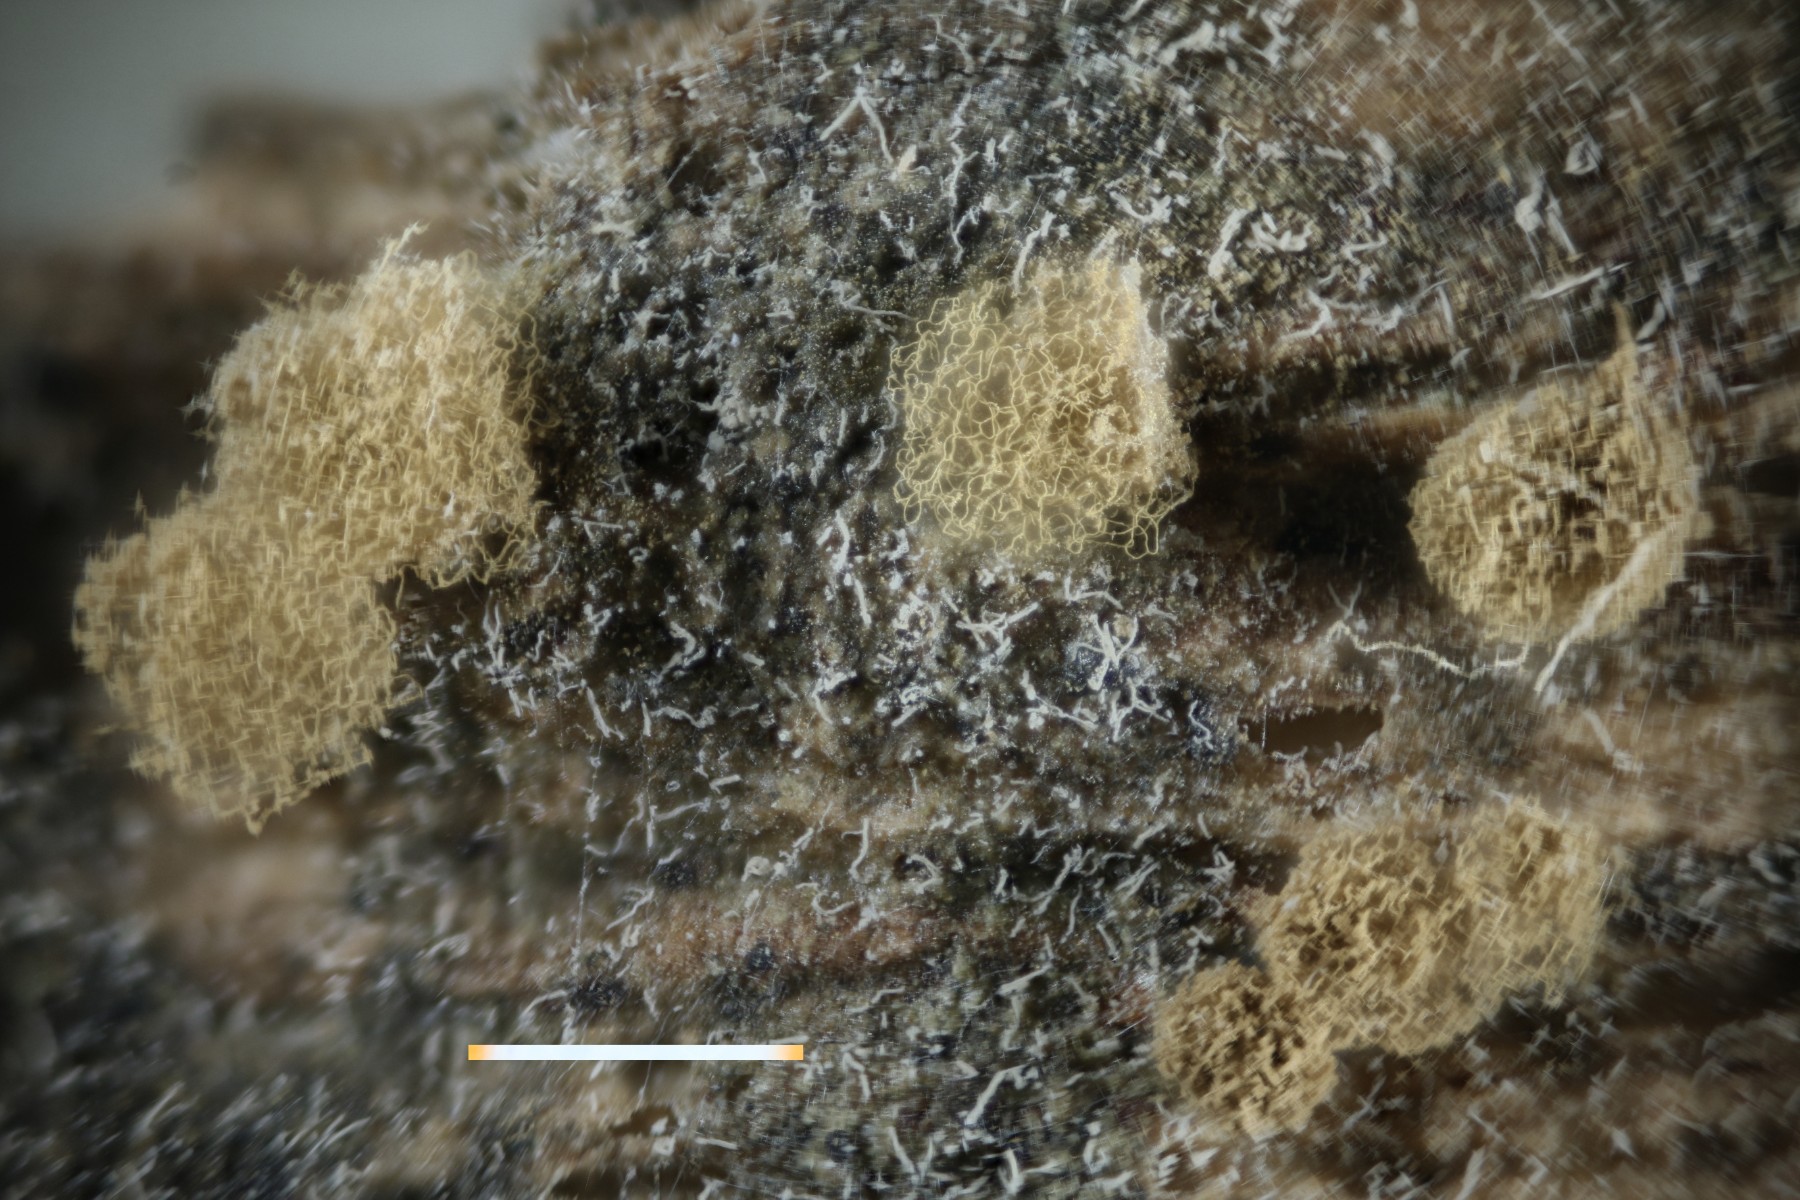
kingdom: Protozoa
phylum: Mycetozoa
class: Myxomycetes
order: Trichiales
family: Arcyriaceae
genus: Arcyria
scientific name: Arcyria pomiformis
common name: Golden apple slime mold
